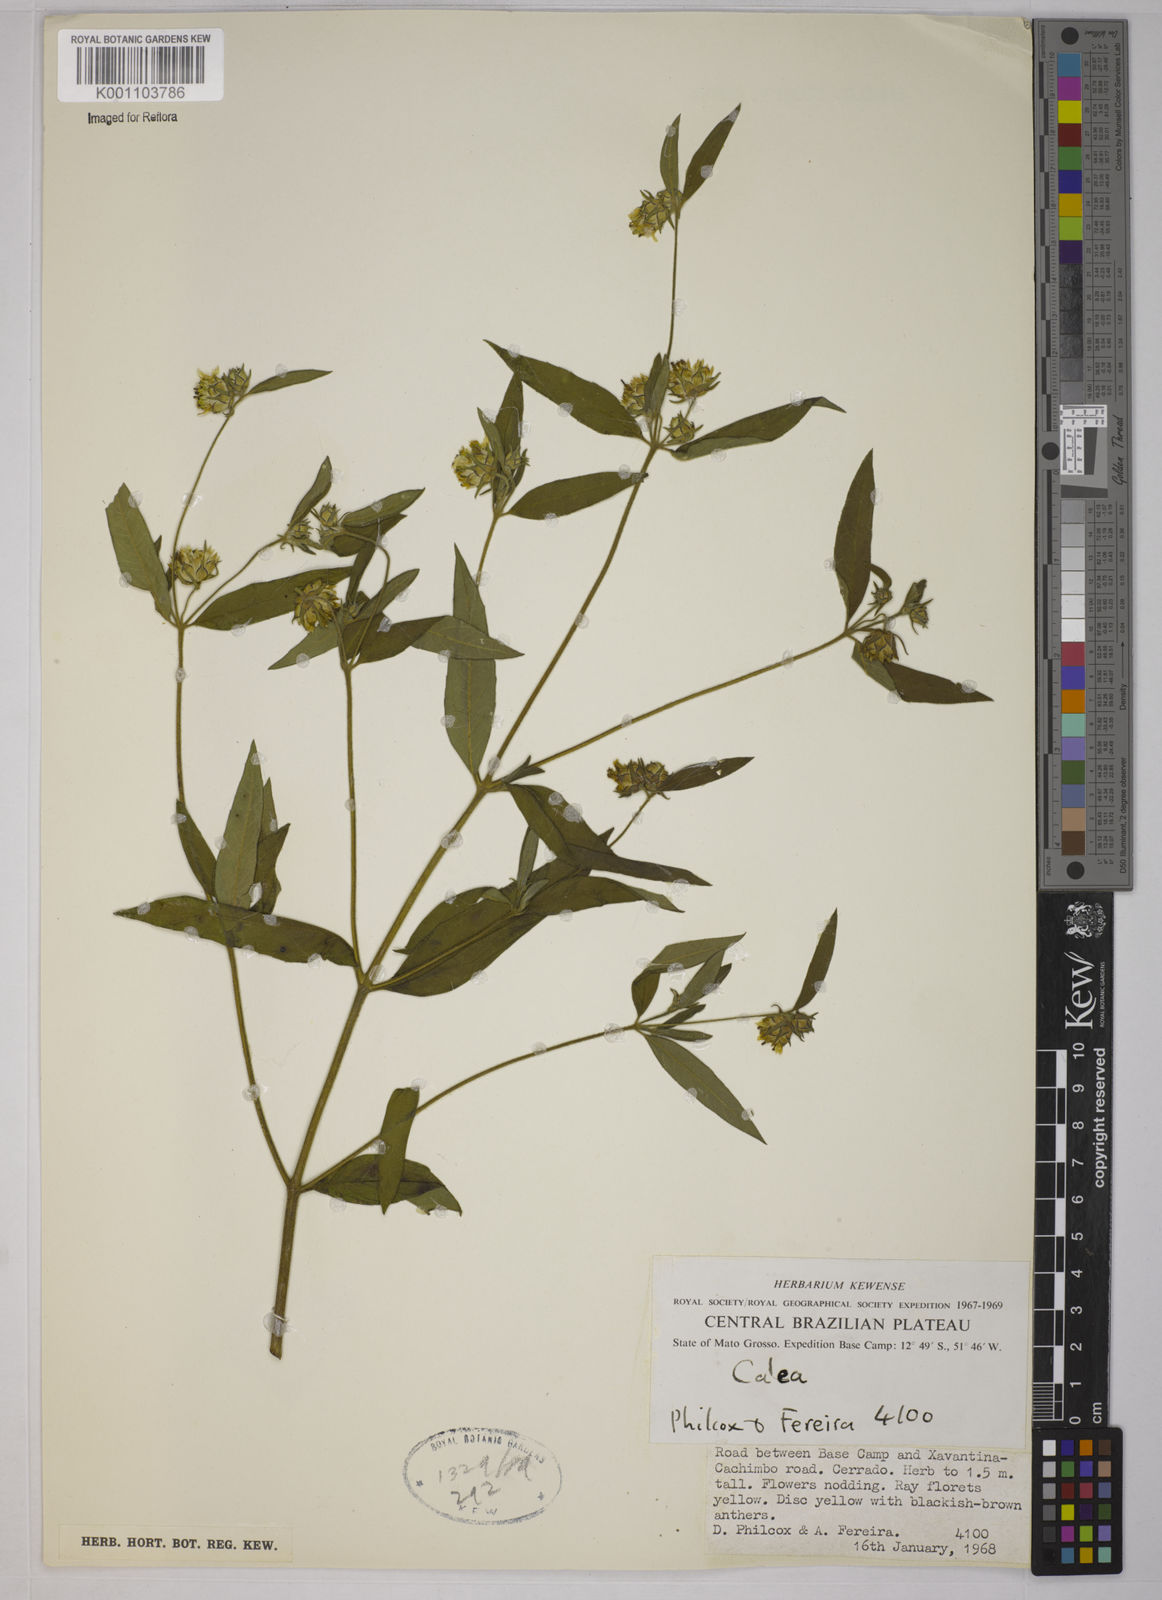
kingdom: Plantae
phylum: Tracheophyta
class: Magnoliopsida
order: Asterales
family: Asteraceae
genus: Calea
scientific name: Calea
